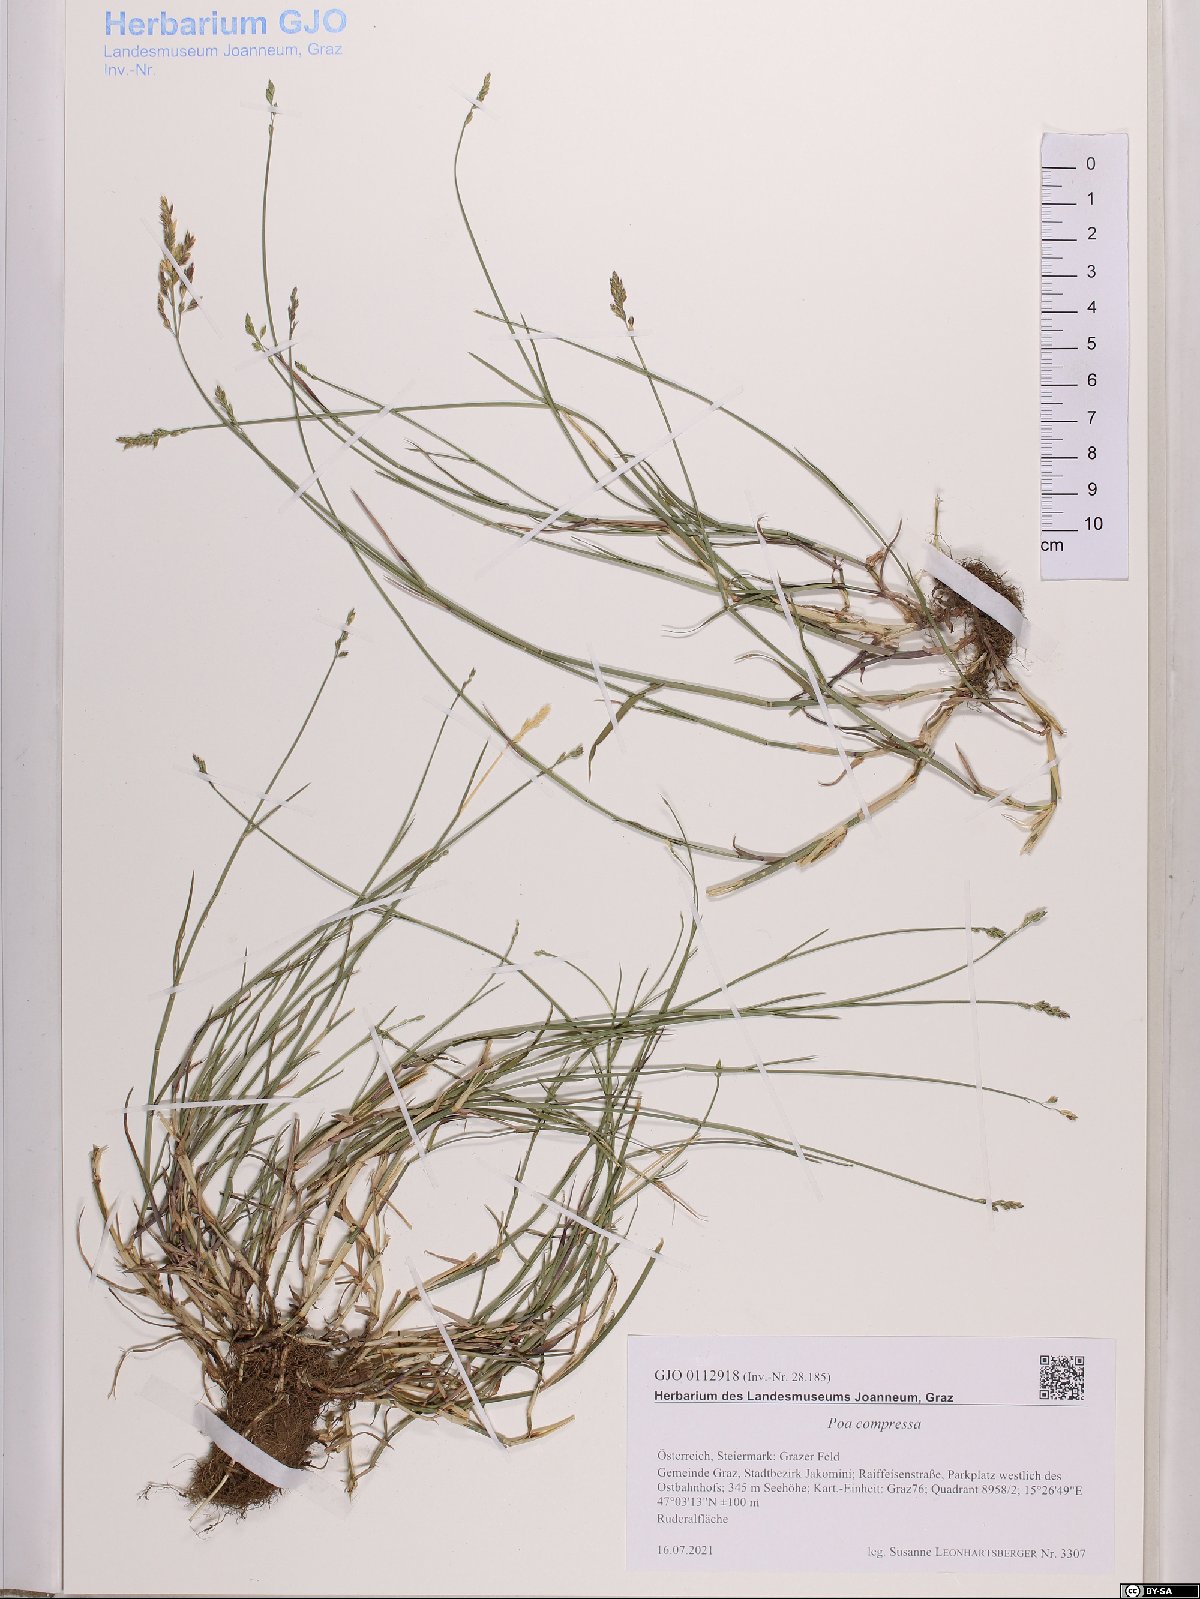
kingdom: Plantae
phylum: Tracheophyta
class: Liliopsida
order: Poales
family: Poaceae
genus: Poa
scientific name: Poa compressa
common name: Canada bluegrass
